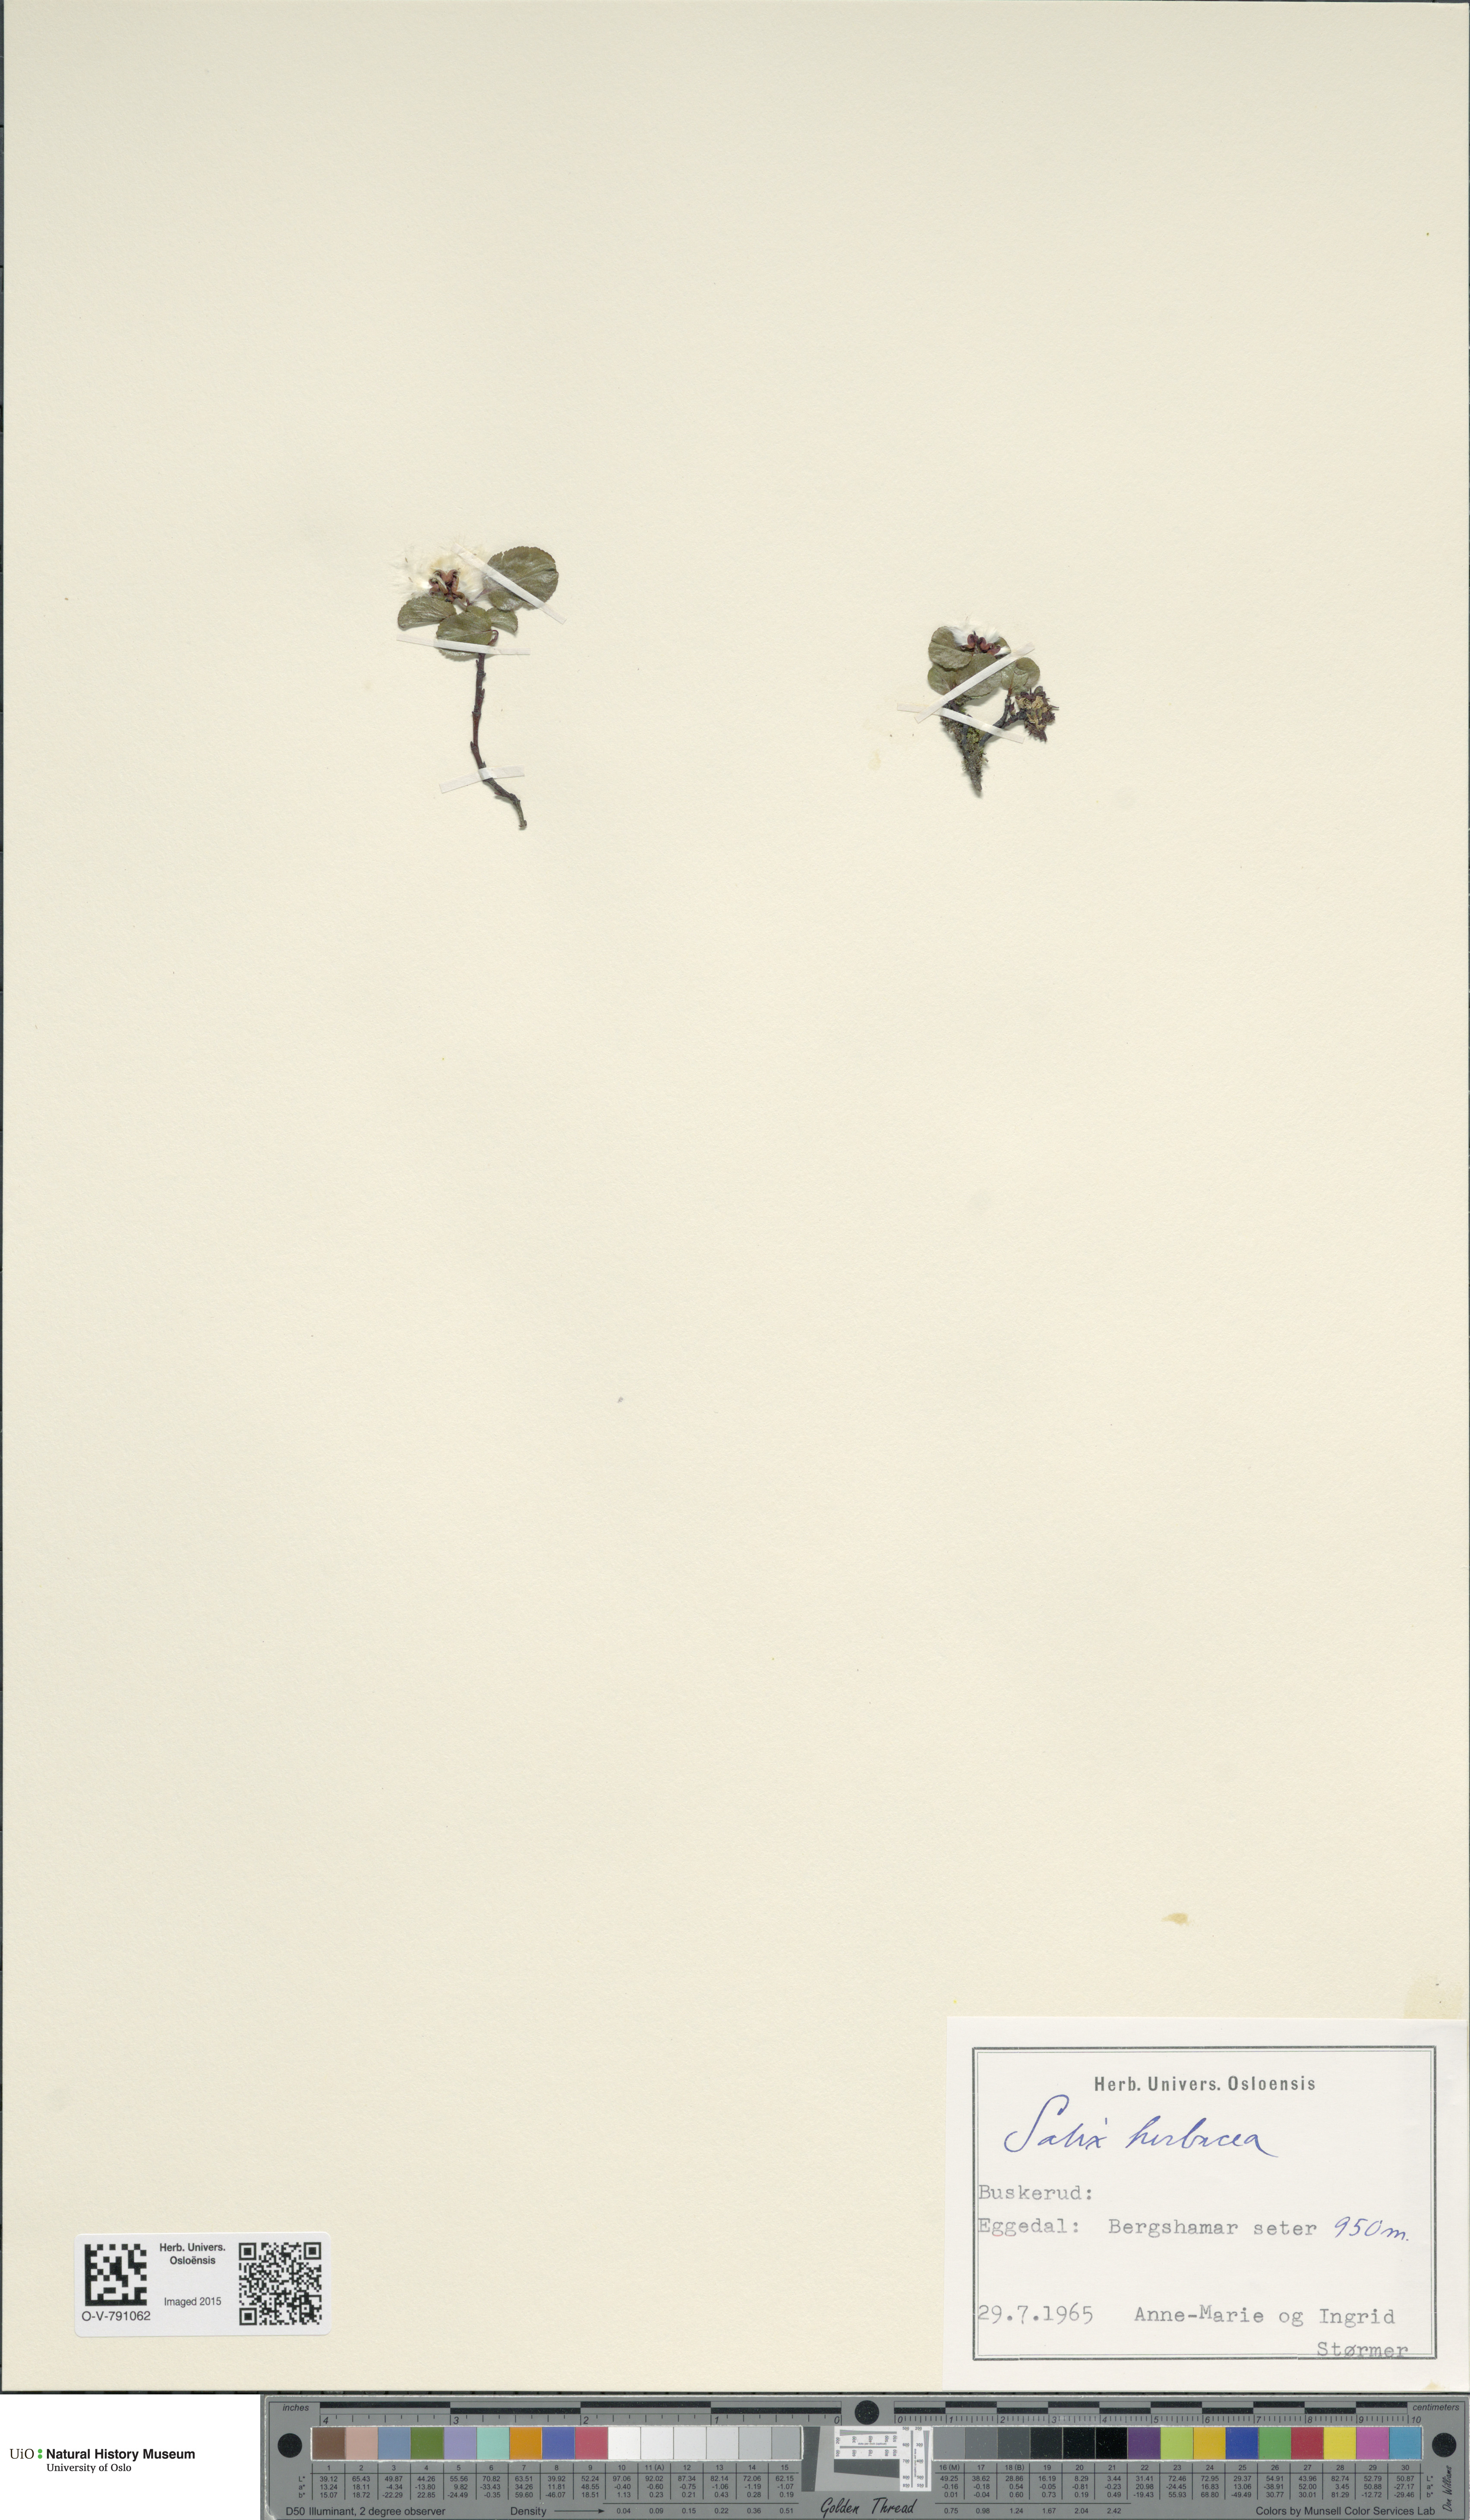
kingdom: Plantae
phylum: Tracheophyta
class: Magnoliopsida
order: Malpighiales
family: Salicaceae
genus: Salix
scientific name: Salix herbacea
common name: Dwarf willow
